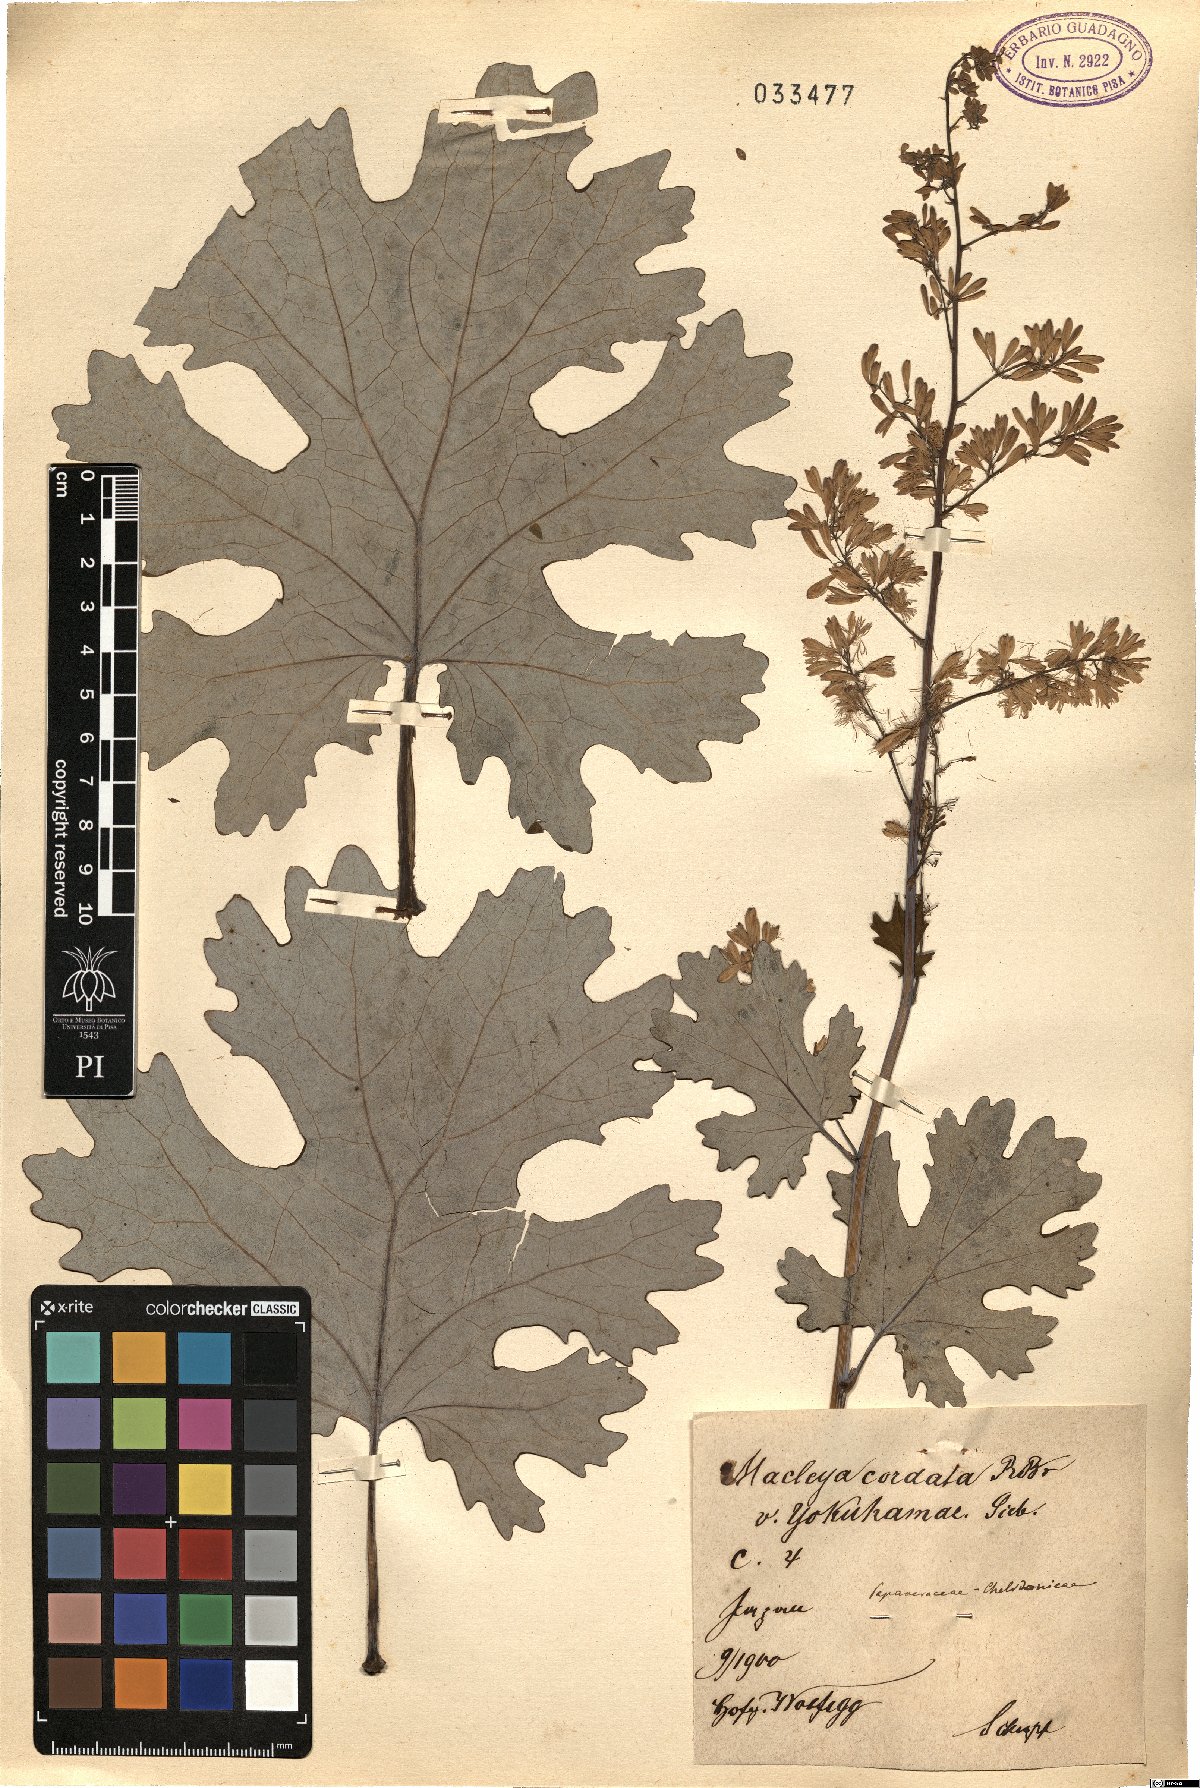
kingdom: Plantae
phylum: Tracheophyta
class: Magnoliopsida
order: Ranunculales
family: Papaveraceae
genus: Macleaya
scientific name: Macleaya cordata
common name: Plume poppy
